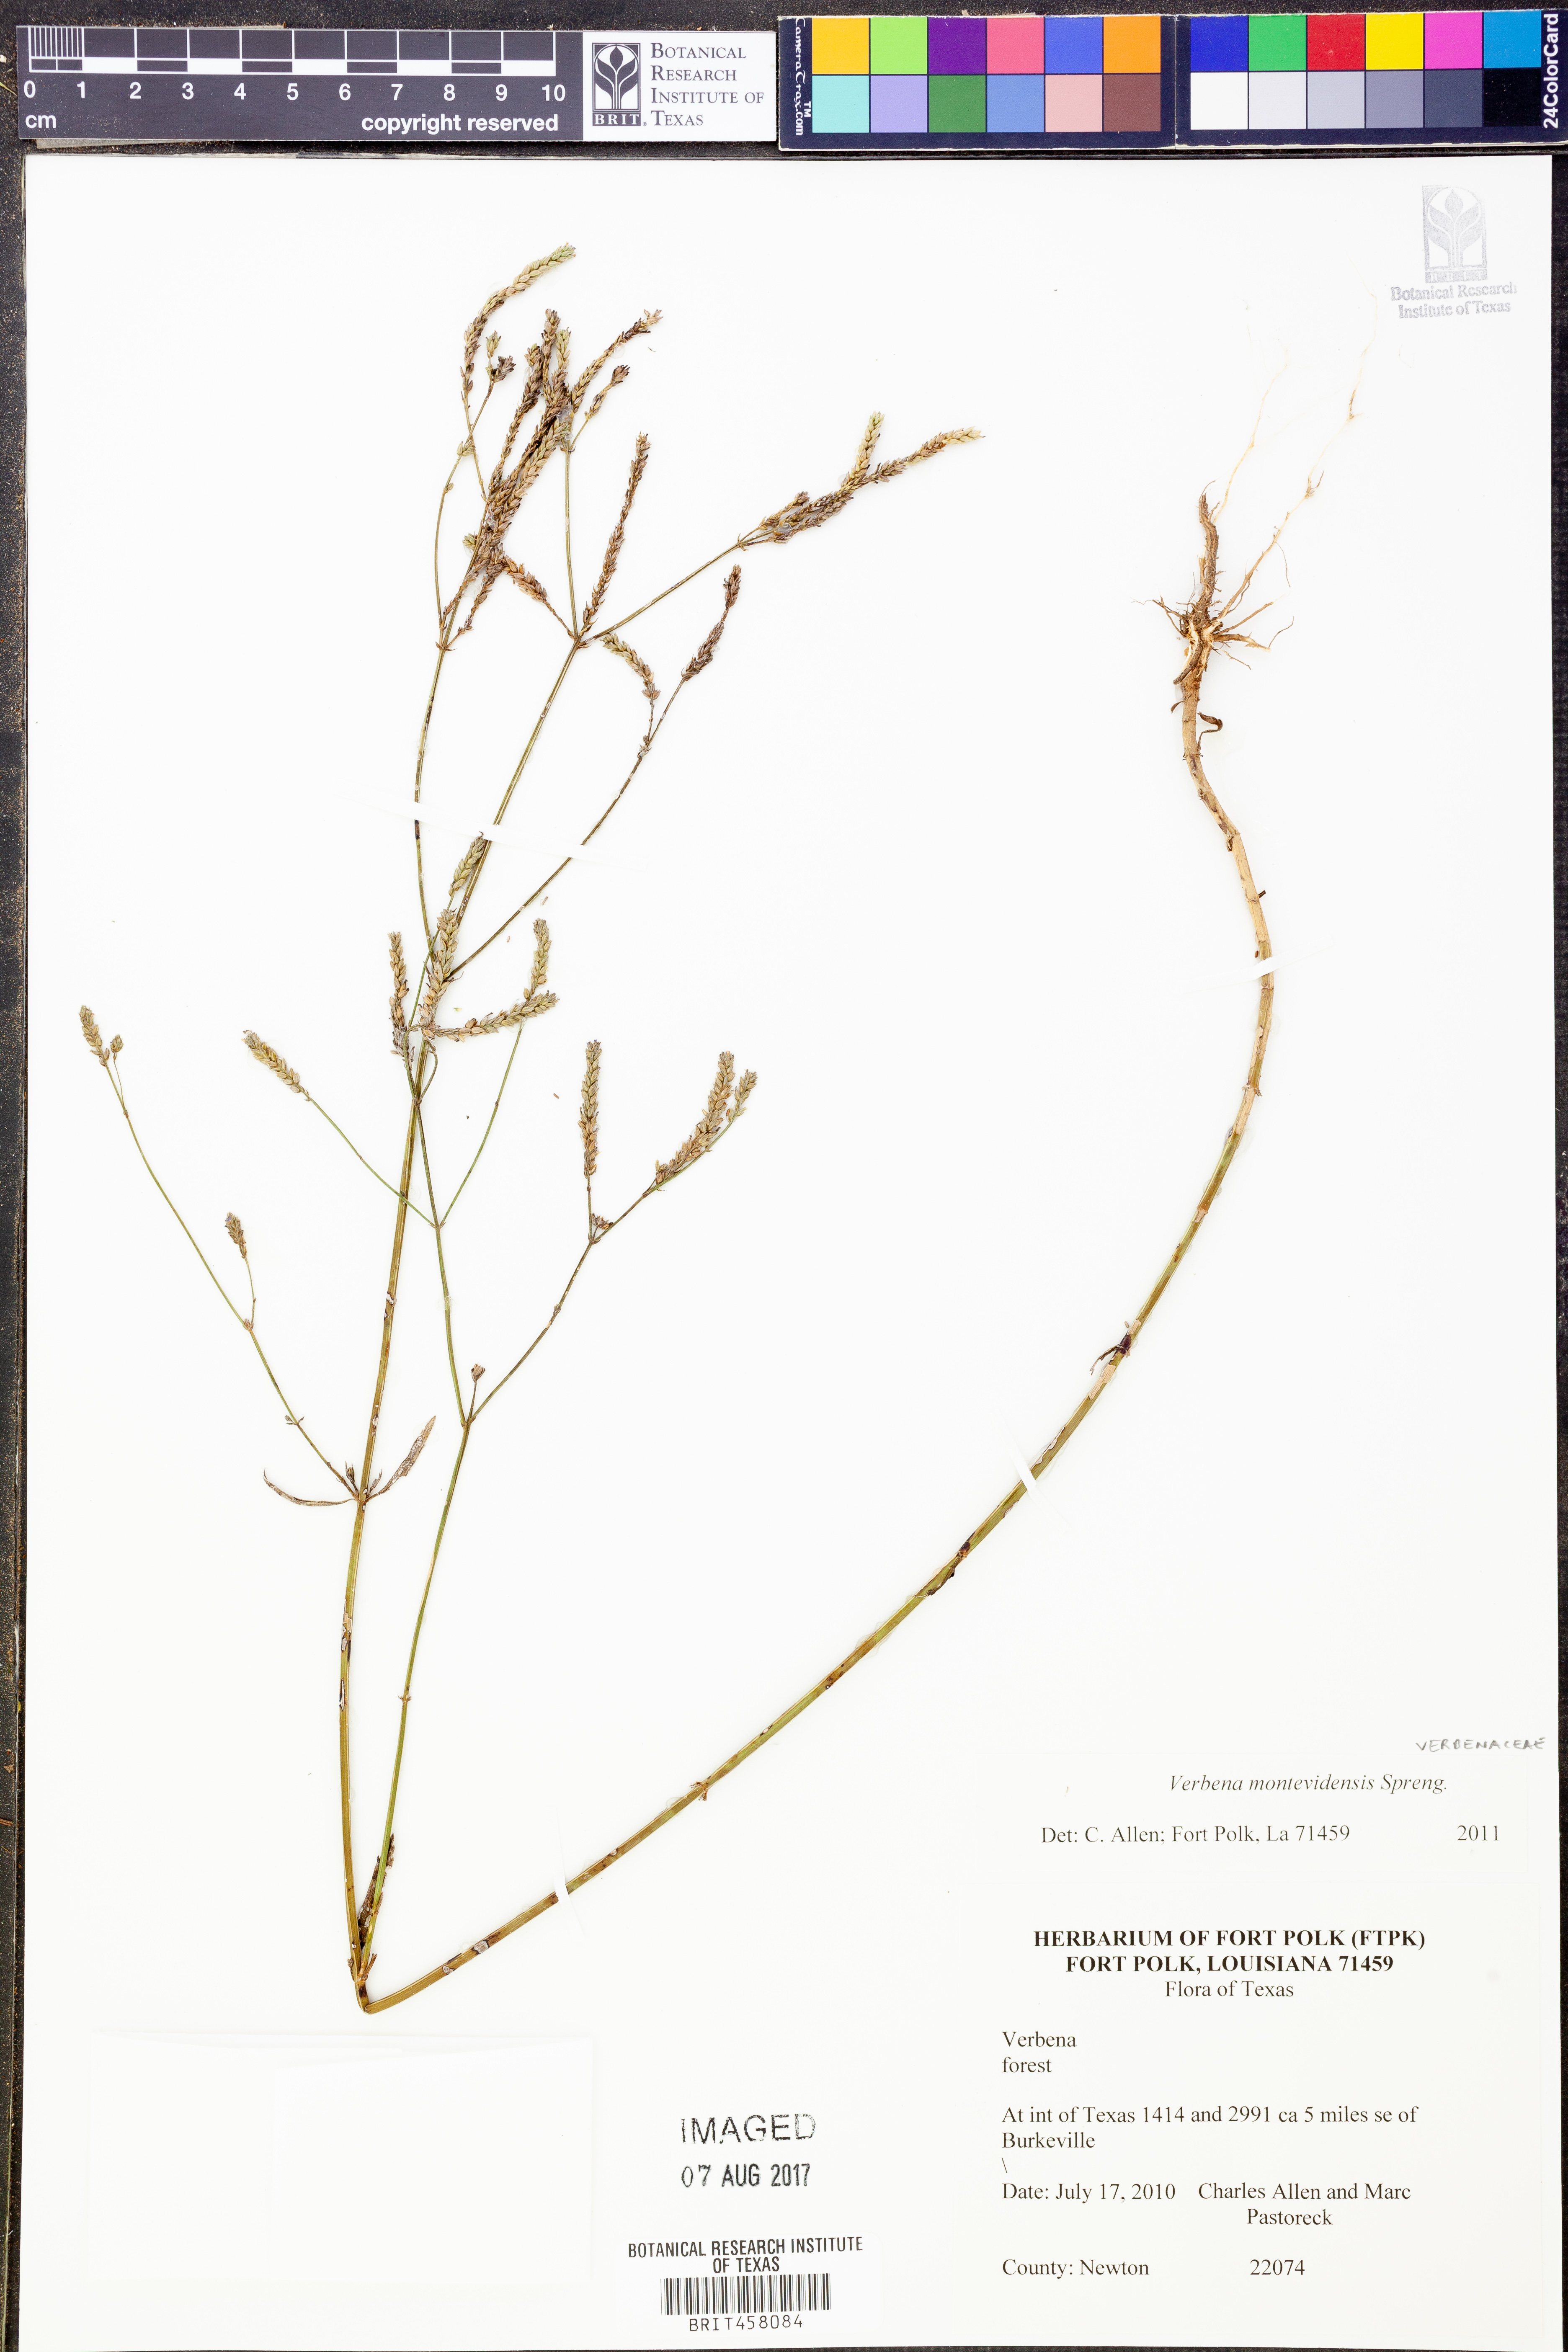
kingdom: Plantae
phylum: Tracheophyta
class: Magnoliopsida
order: Lamiales
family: Verbenaceae
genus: Verbena
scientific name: Verbena montevidensis
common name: Uruguayan vervain
